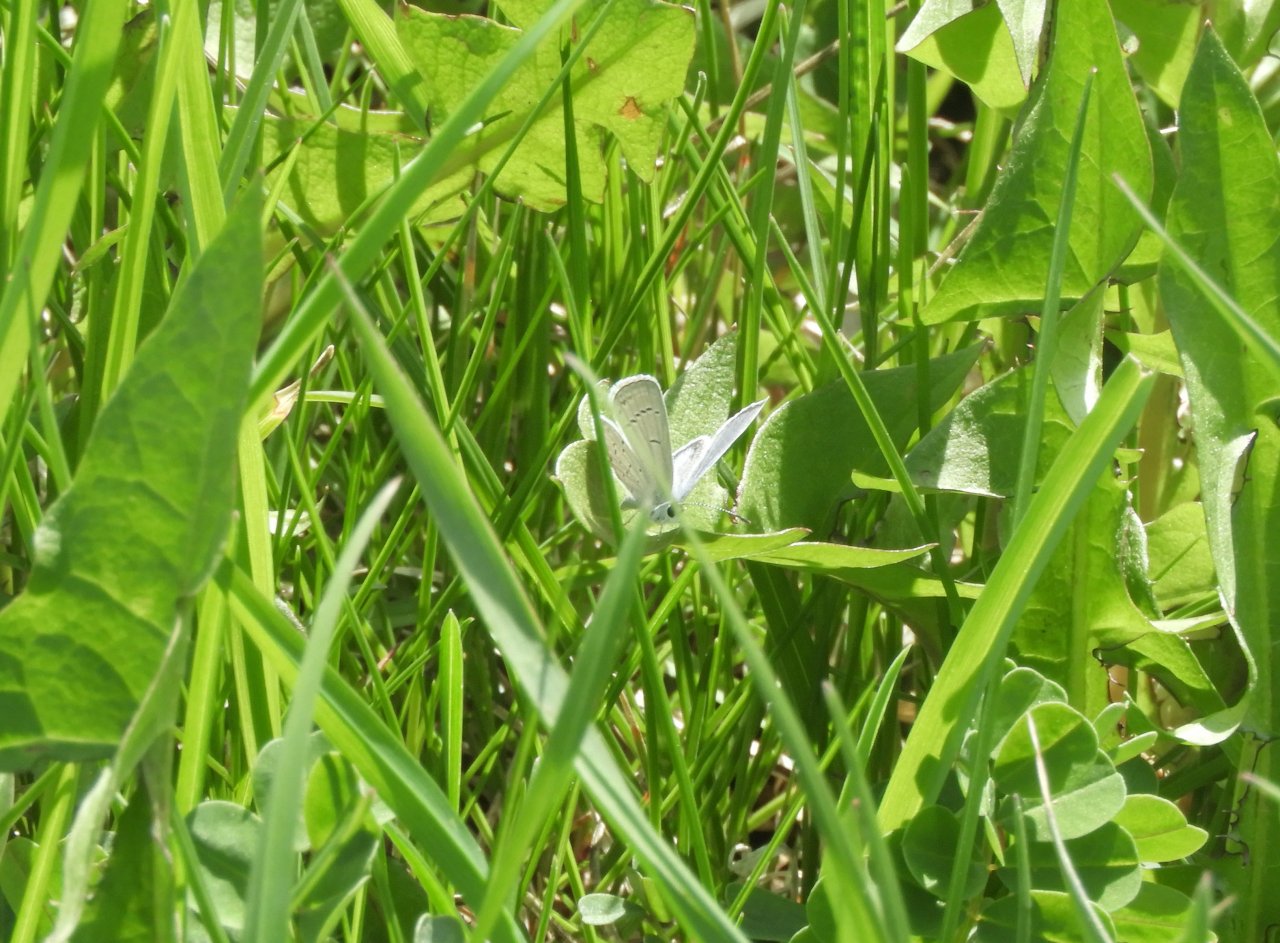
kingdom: Animalia
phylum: Arthropoda
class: Insecta
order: Lepidoptera
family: Lycaenidae
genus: Elkalyce
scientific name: Elkalyce comyntas
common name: Eastern Tailed-Blue
